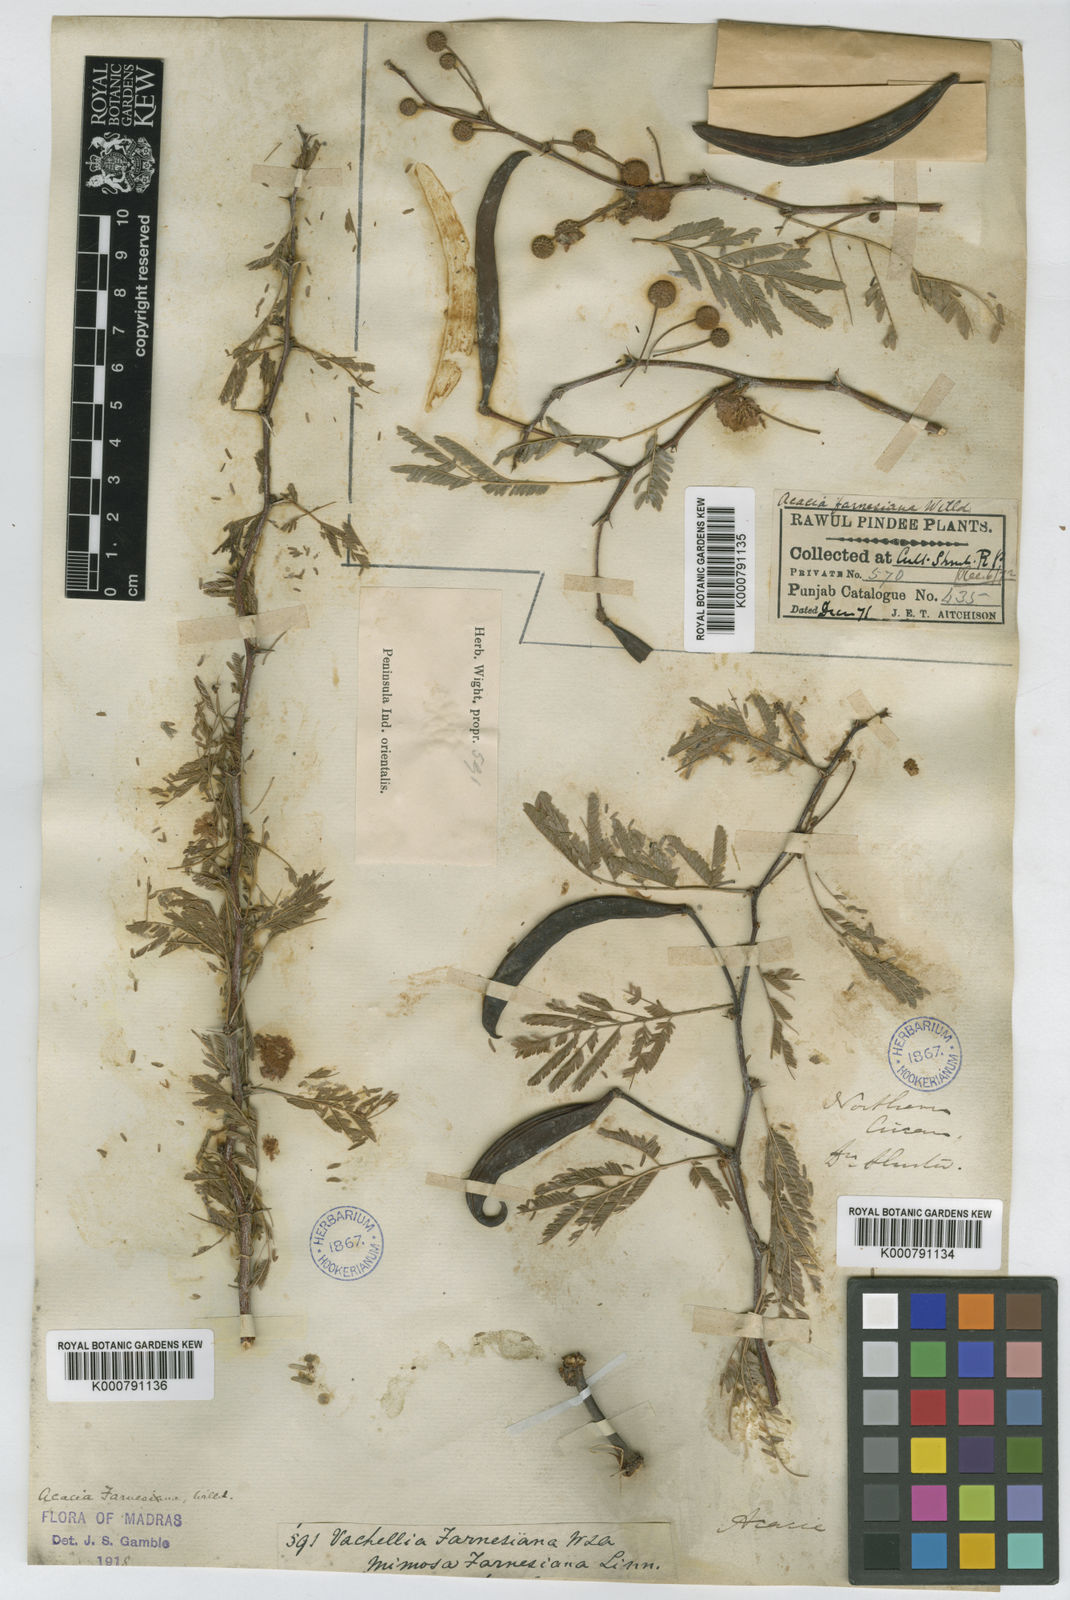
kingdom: Plantae
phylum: Tracheophyta
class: Magnoliopsida
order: Fabales
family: Fabaceae
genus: Vachellia
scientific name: Vachellia farnesiana
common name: Sweet acacia
